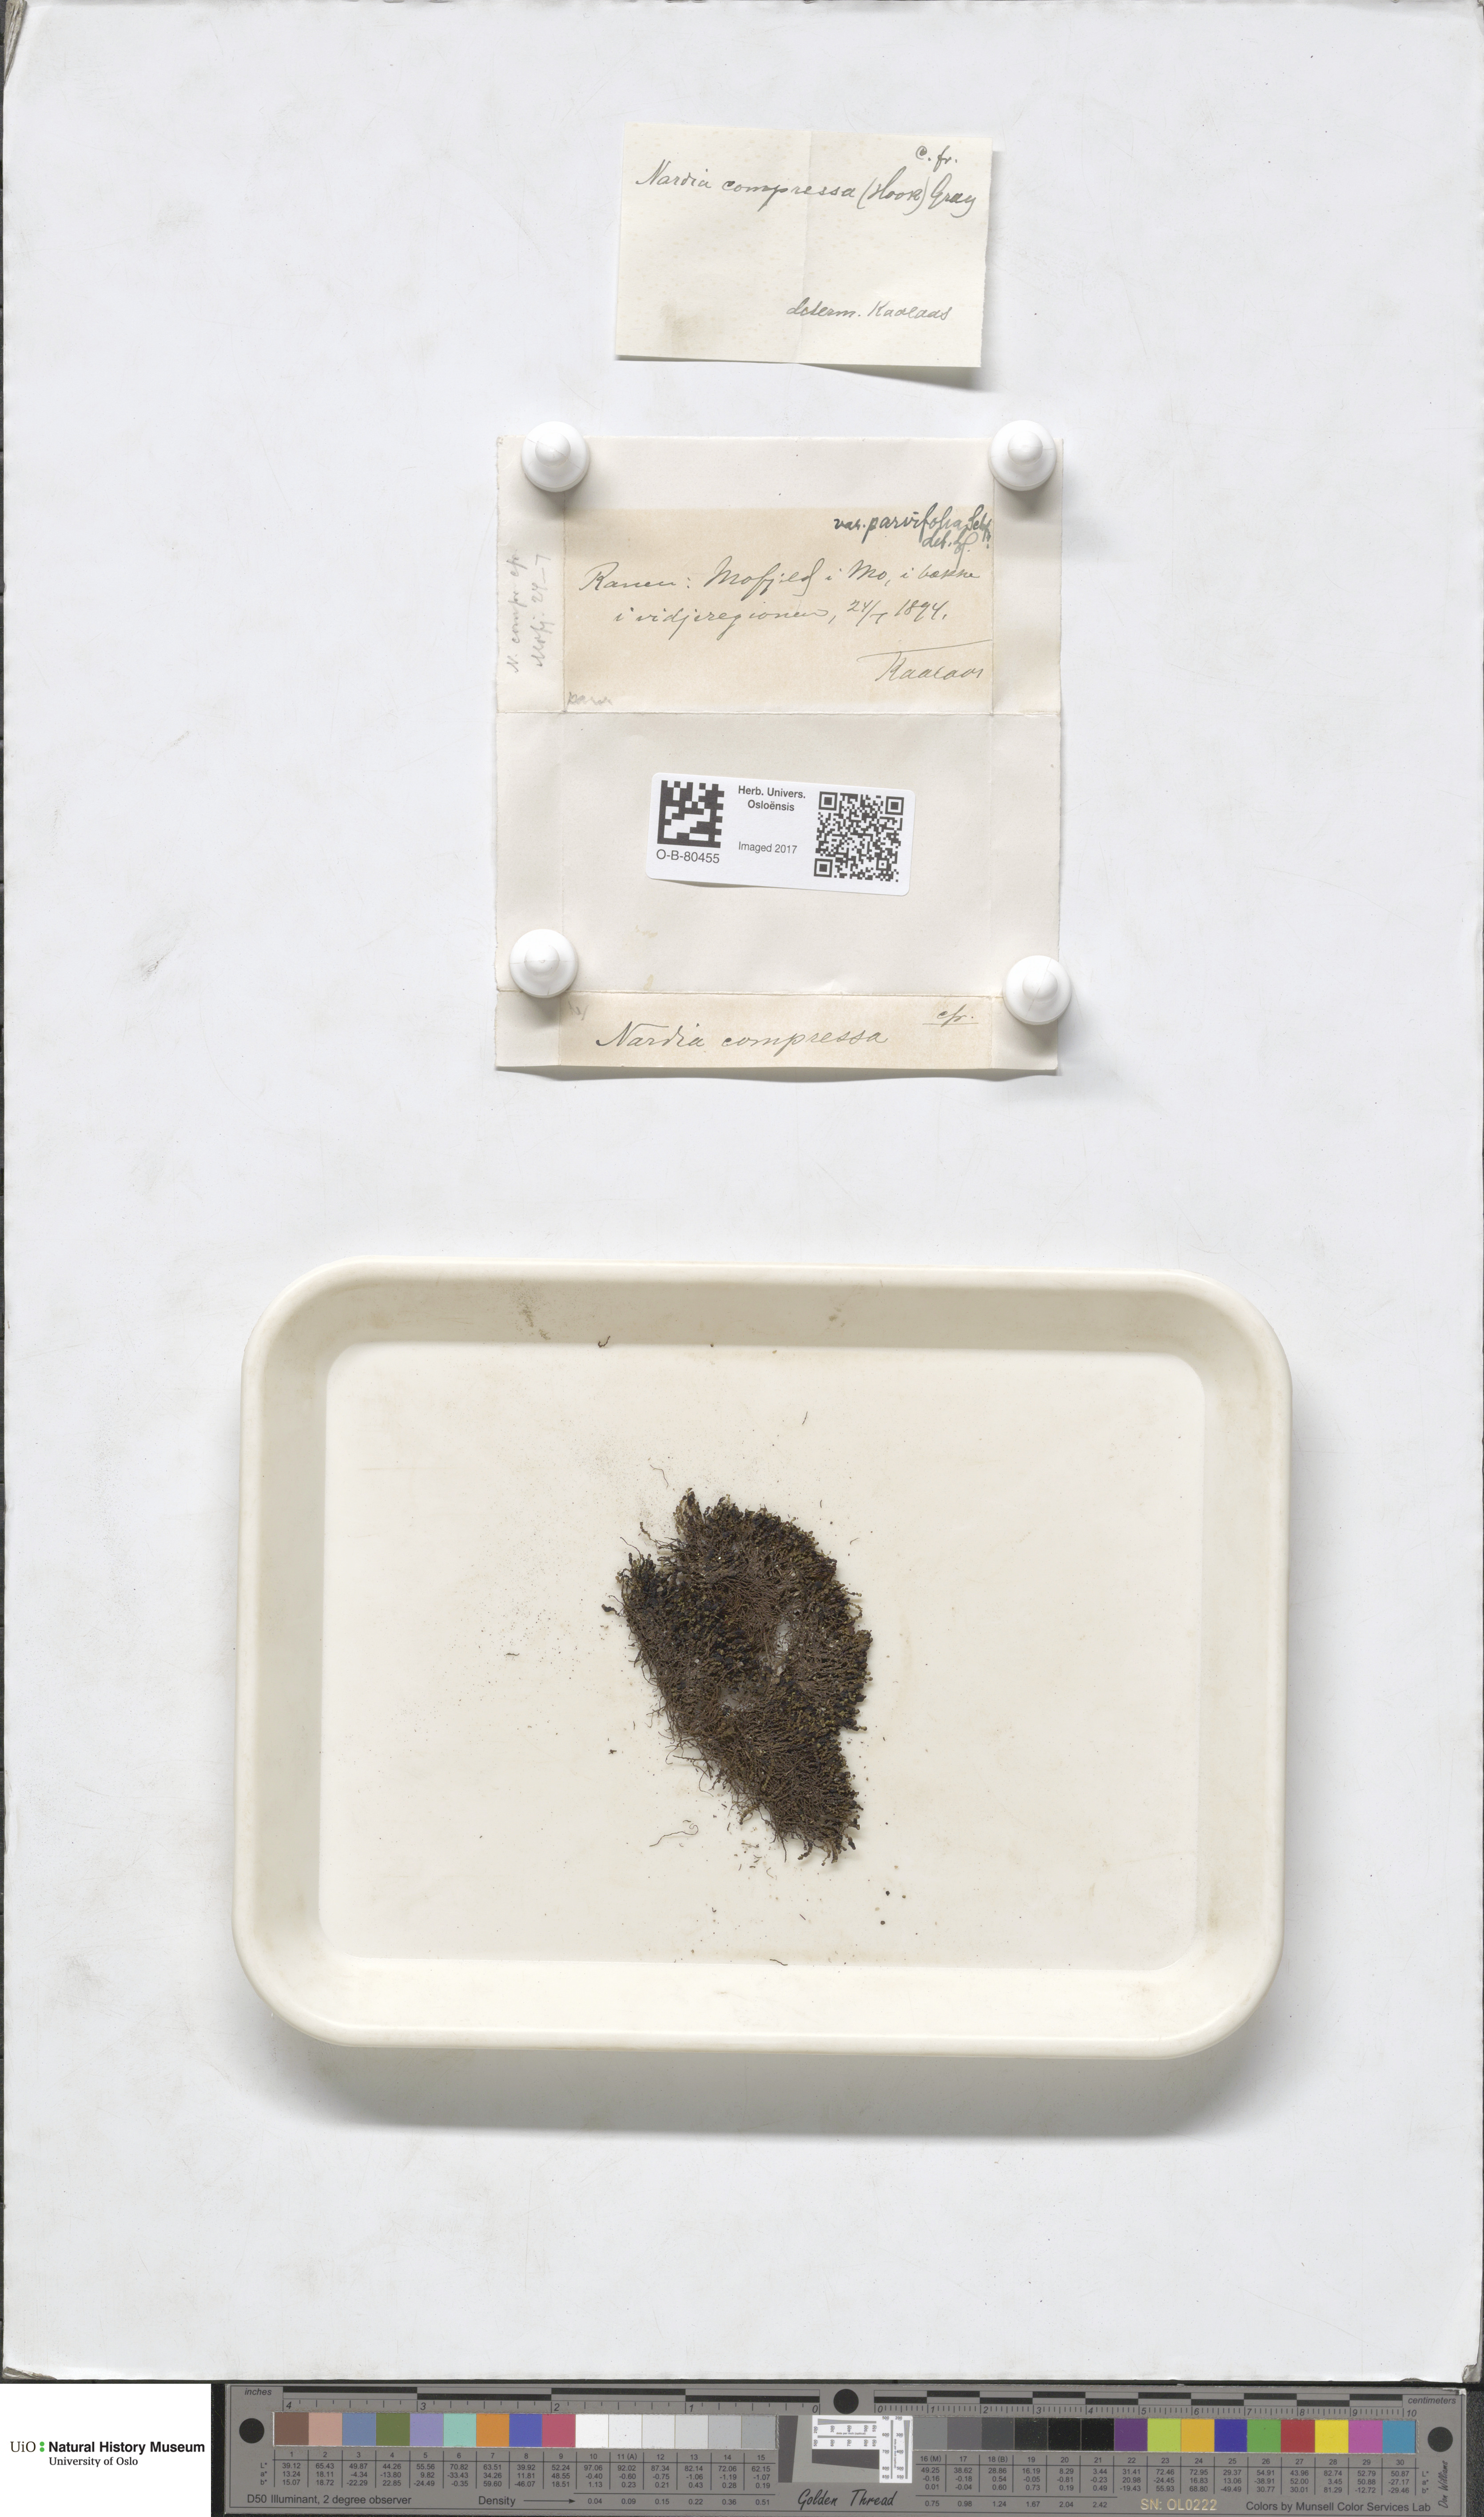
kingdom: Plantae
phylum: Marchantiophyta
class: Jungermanniopsida
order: Jungermanniales
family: Gymnomitriaceae
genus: Nardia
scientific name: Nardia compressa
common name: Compressed flapwort
